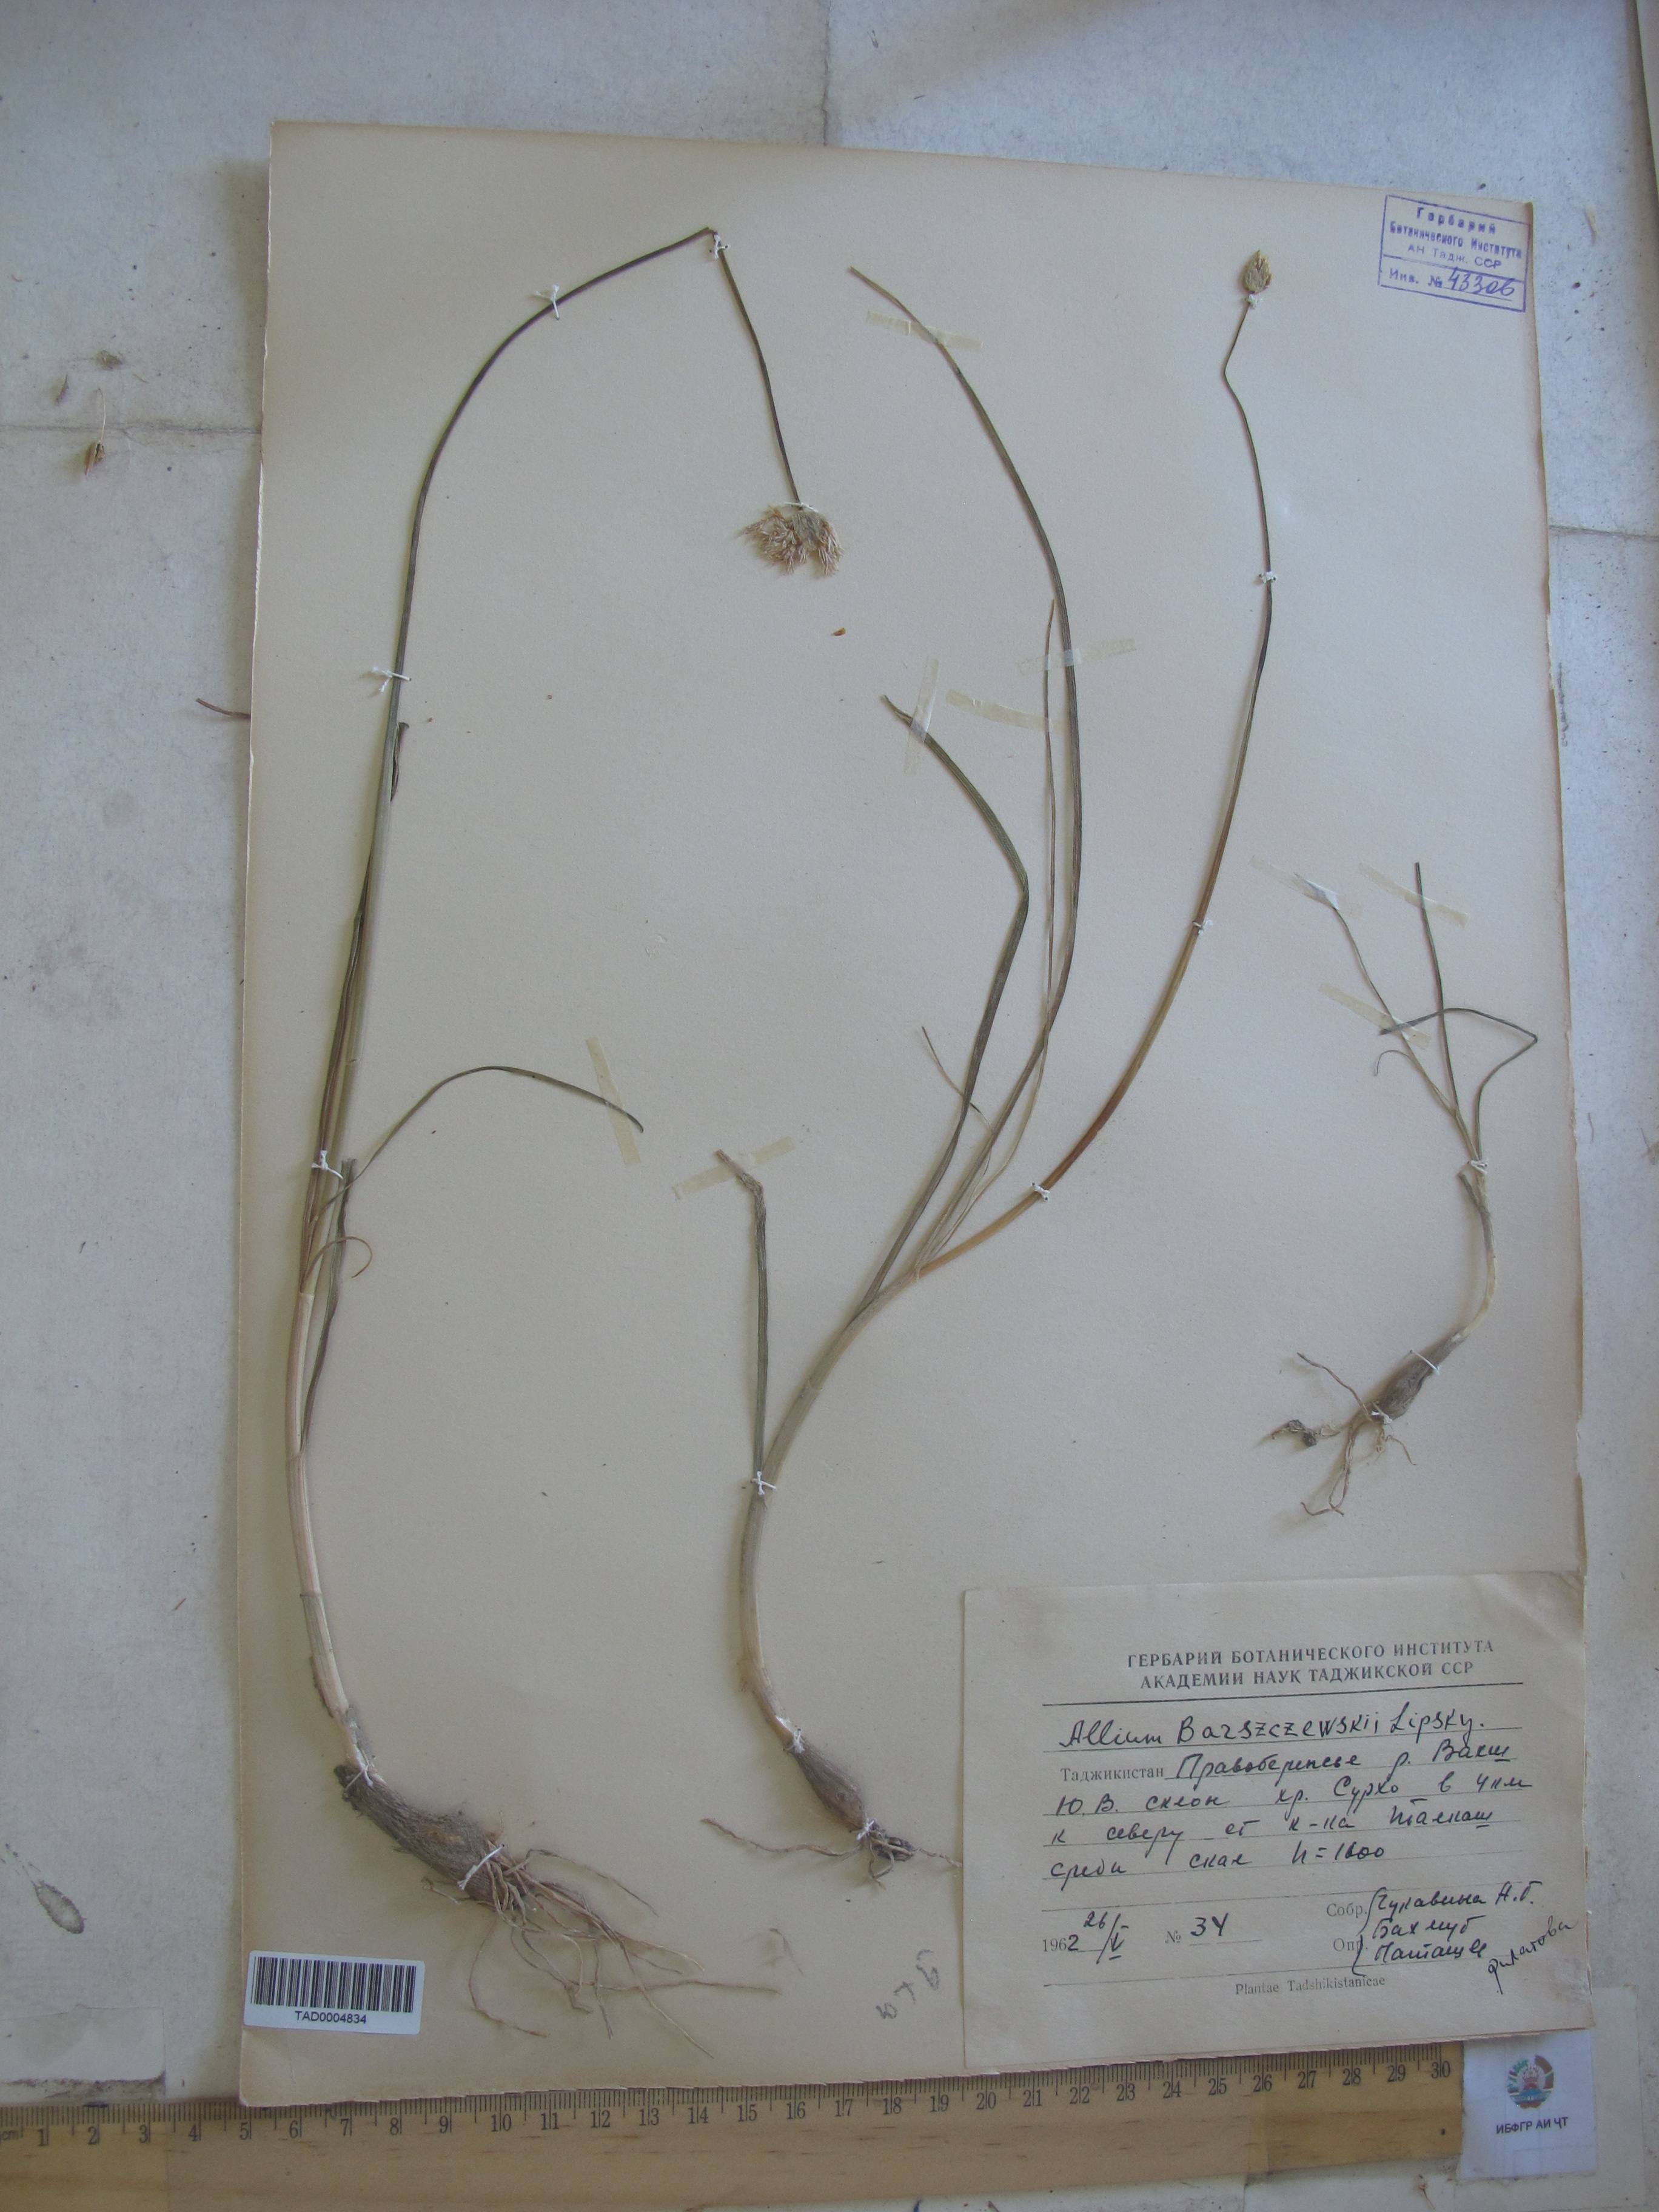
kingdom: Plantae
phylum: Tracheophyta
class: Liliopsida
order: Asparagales
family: Amaryllidaceae
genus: Allium
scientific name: Allium barsczewskii
